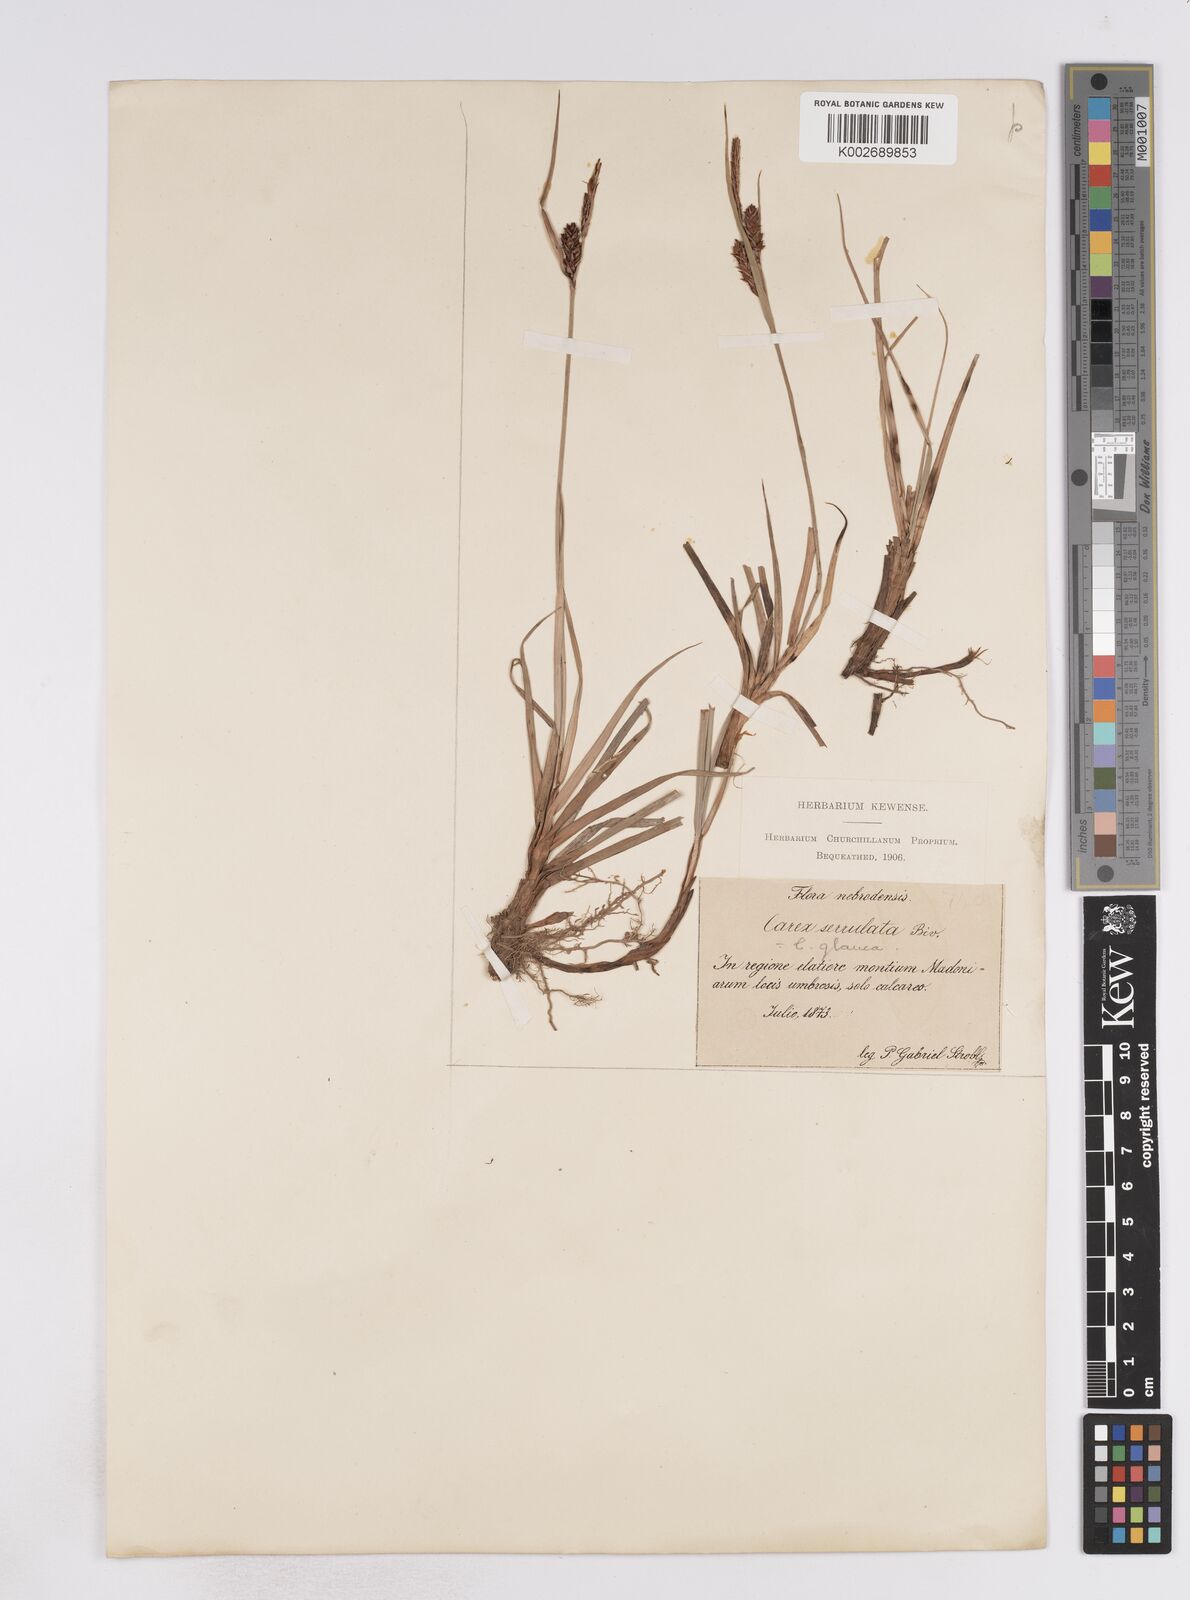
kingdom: Plantae
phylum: Tracheophyta
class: Liliopsida
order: Poales
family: Cyperaceae
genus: Carex
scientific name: Carex flacca
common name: Glaucous sedge
